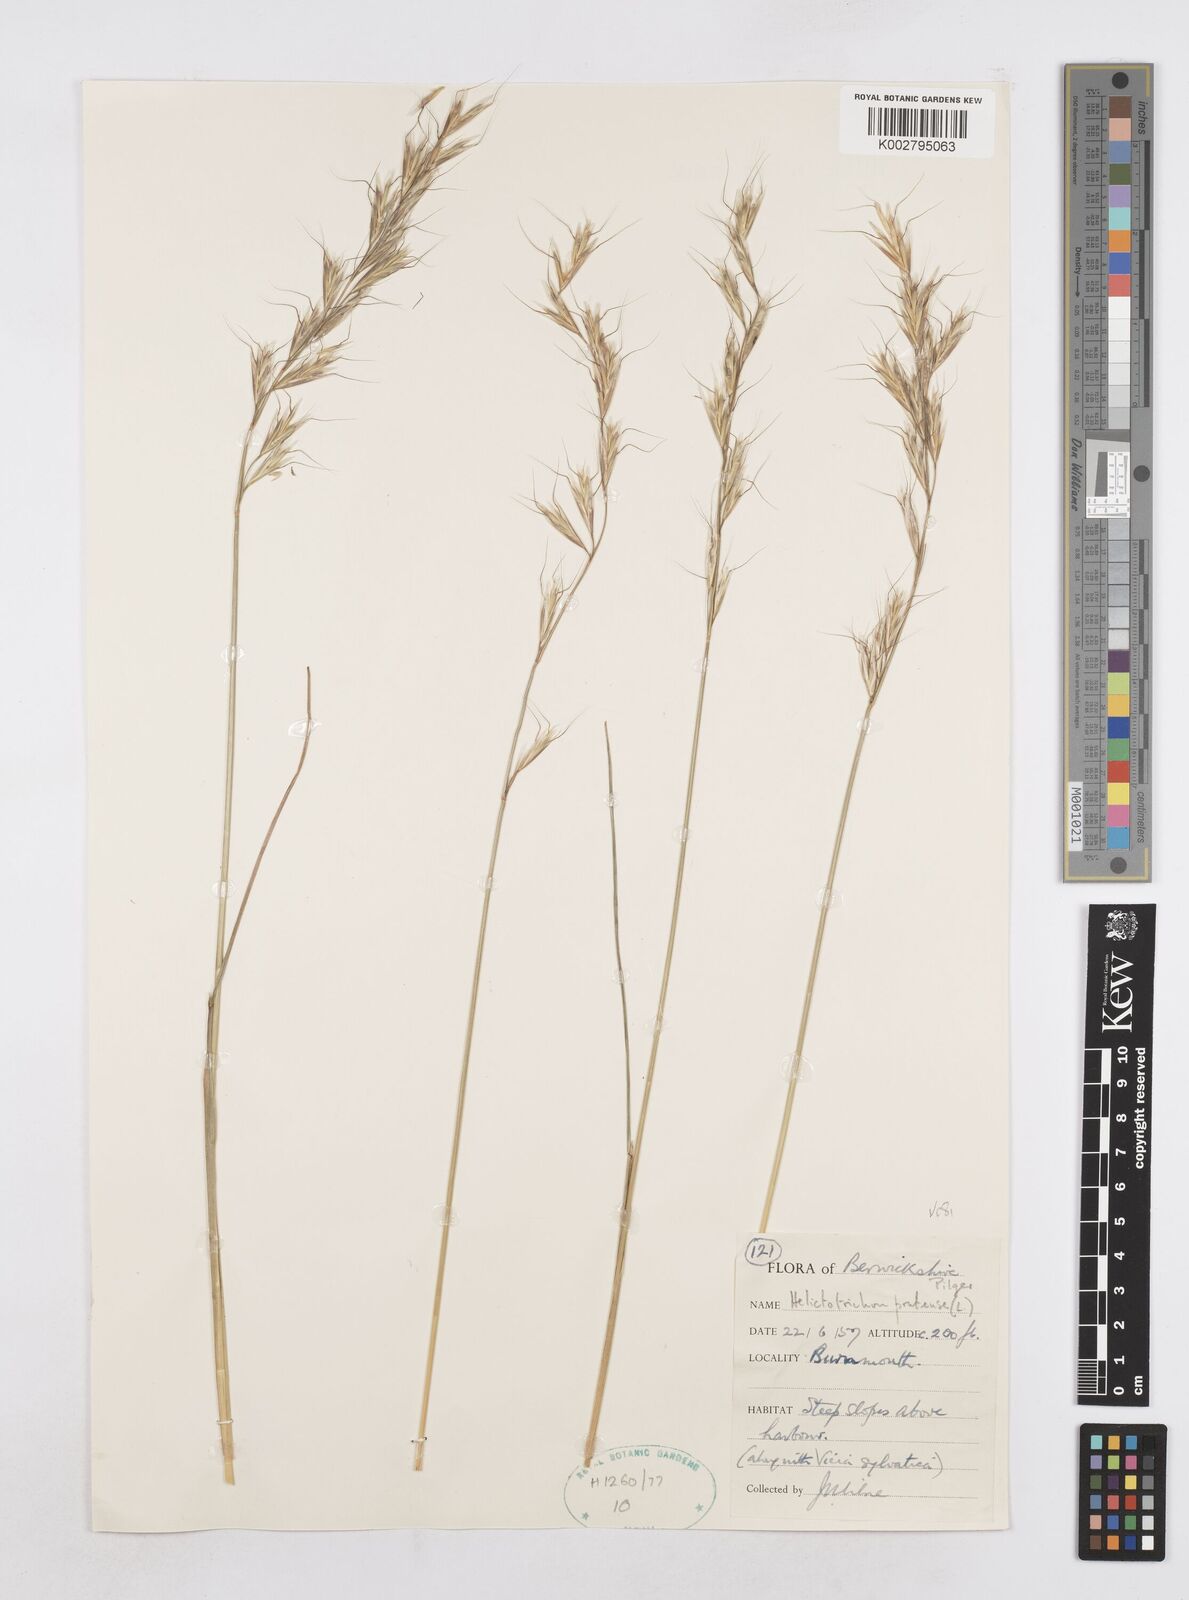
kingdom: Plantae
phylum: Tracheophyta
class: Liliopsida
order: Poales
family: Poaceae
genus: Helictotrichon
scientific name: Helictotrichon
